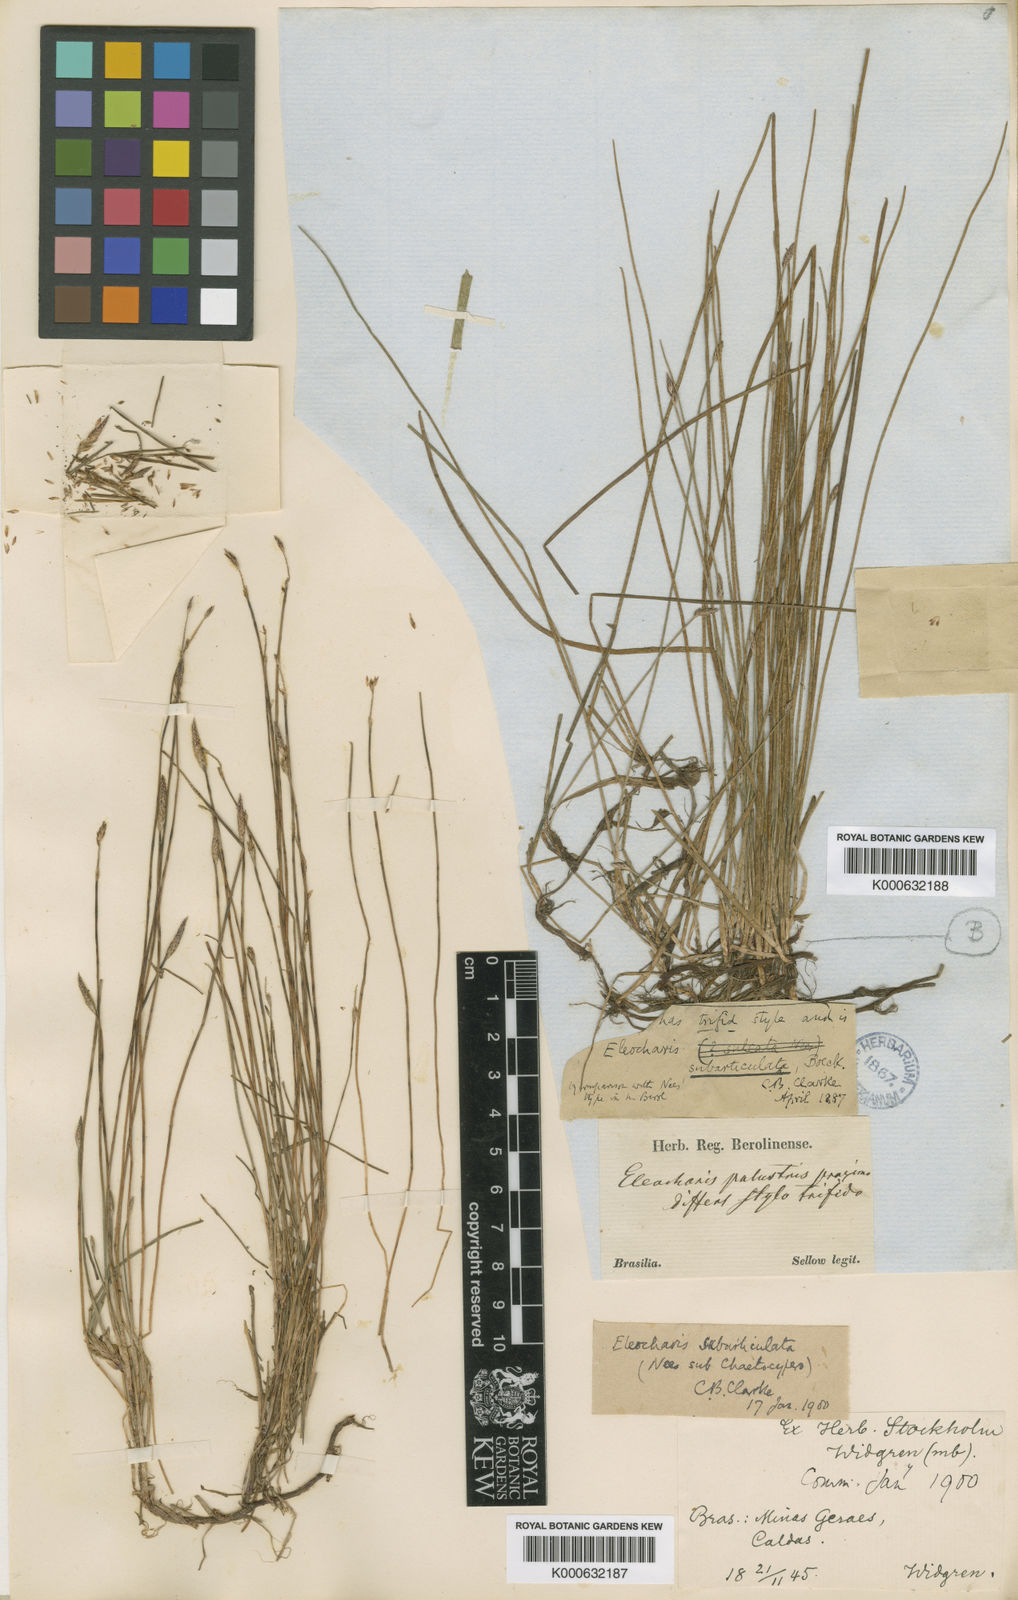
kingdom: Plantae
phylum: Tracheophyta
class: Liliopsida
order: Poales
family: Cyperaceae
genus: Eleocharis
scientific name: Eleocharis subarticulata
